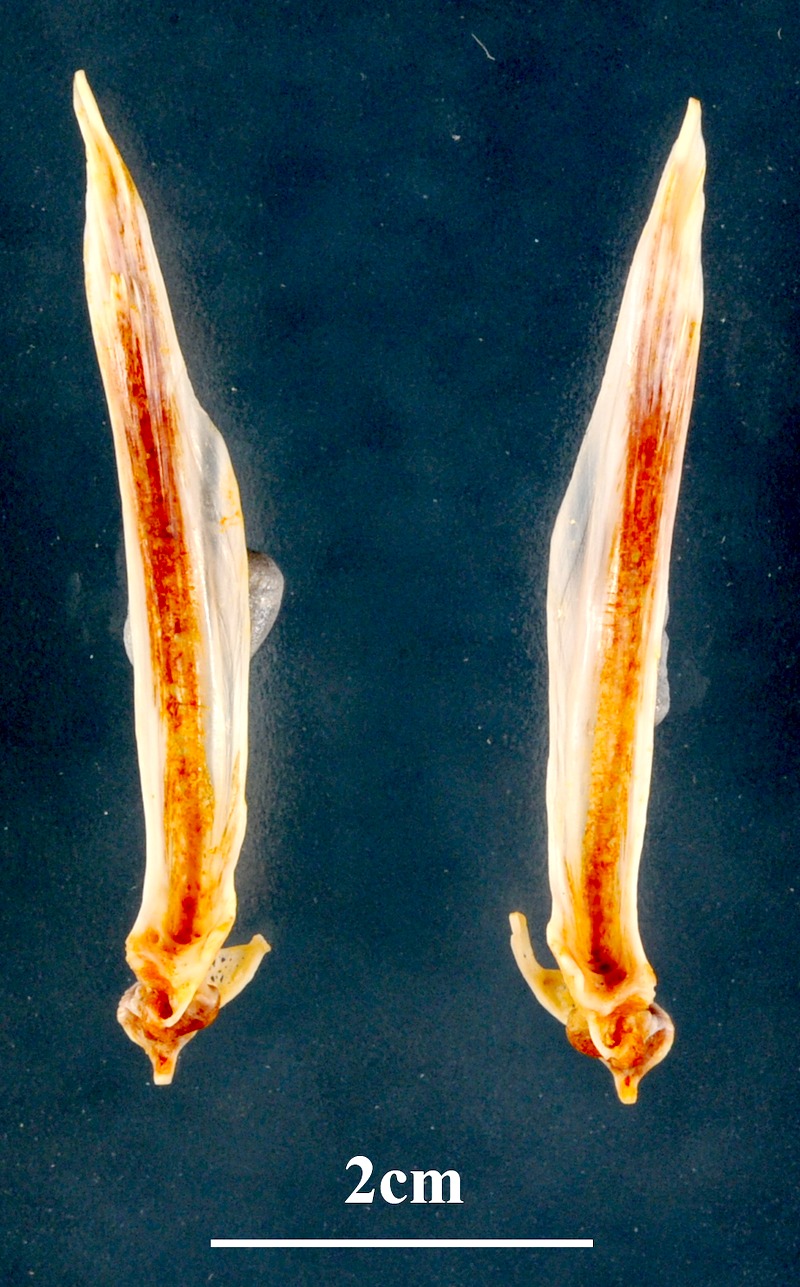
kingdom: Animalia
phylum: Chordata
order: Perciformes
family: Sparidae
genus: Dentex
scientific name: Dentex dentex
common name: Dentex
